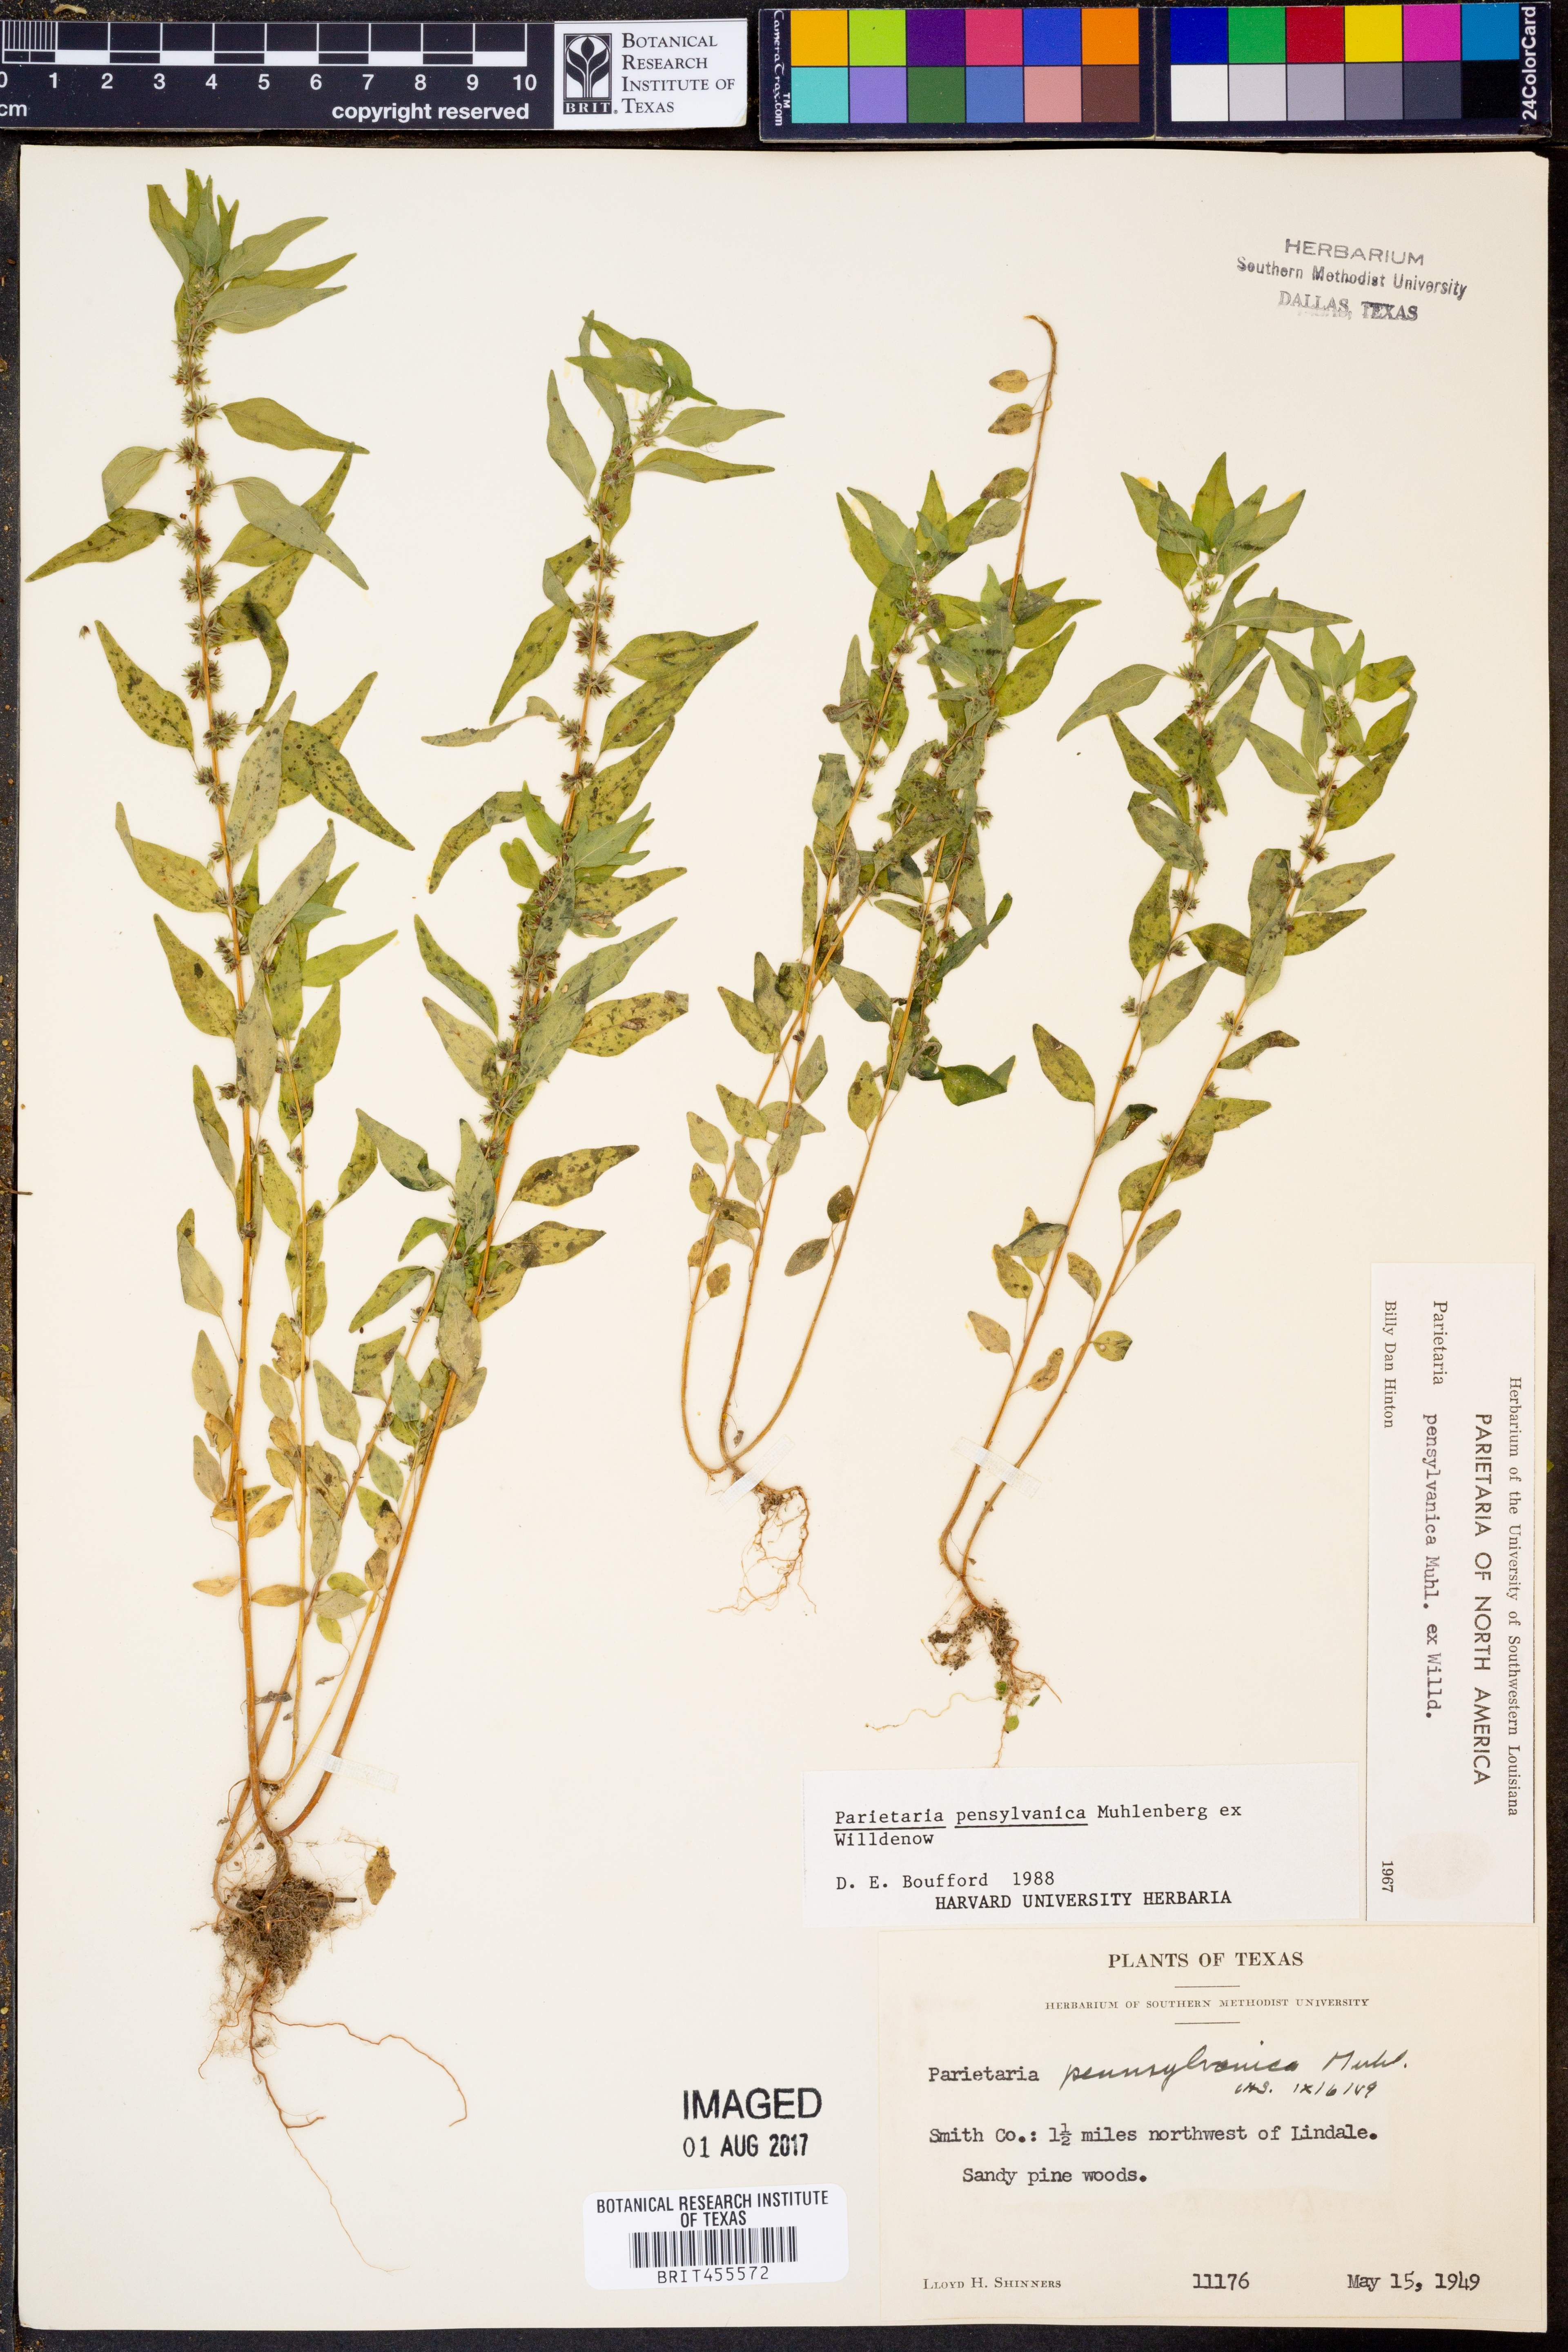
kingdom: Plantae
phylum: Tracheophyta
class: Magnoliopsida
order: Rosales
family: Urticaceae
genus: Parietaria
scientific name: Parietaria pensylvanica
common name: Pennsylvania pellitory
